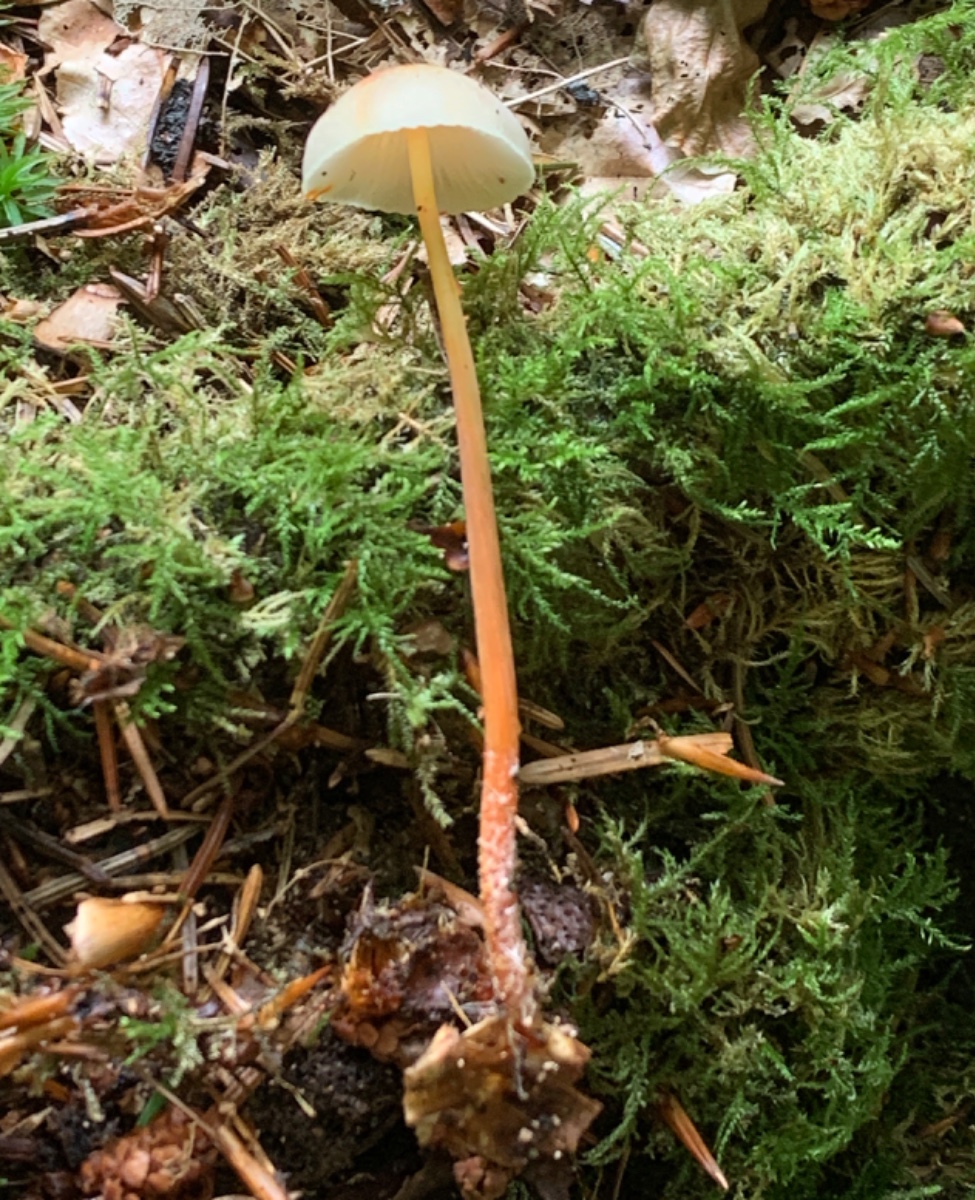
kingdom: Fungi
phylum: Basidiomycota
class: Agaricomycetes
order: Agaricales
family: Mycenaceae
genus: Mycena
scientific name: Mycena crocata
